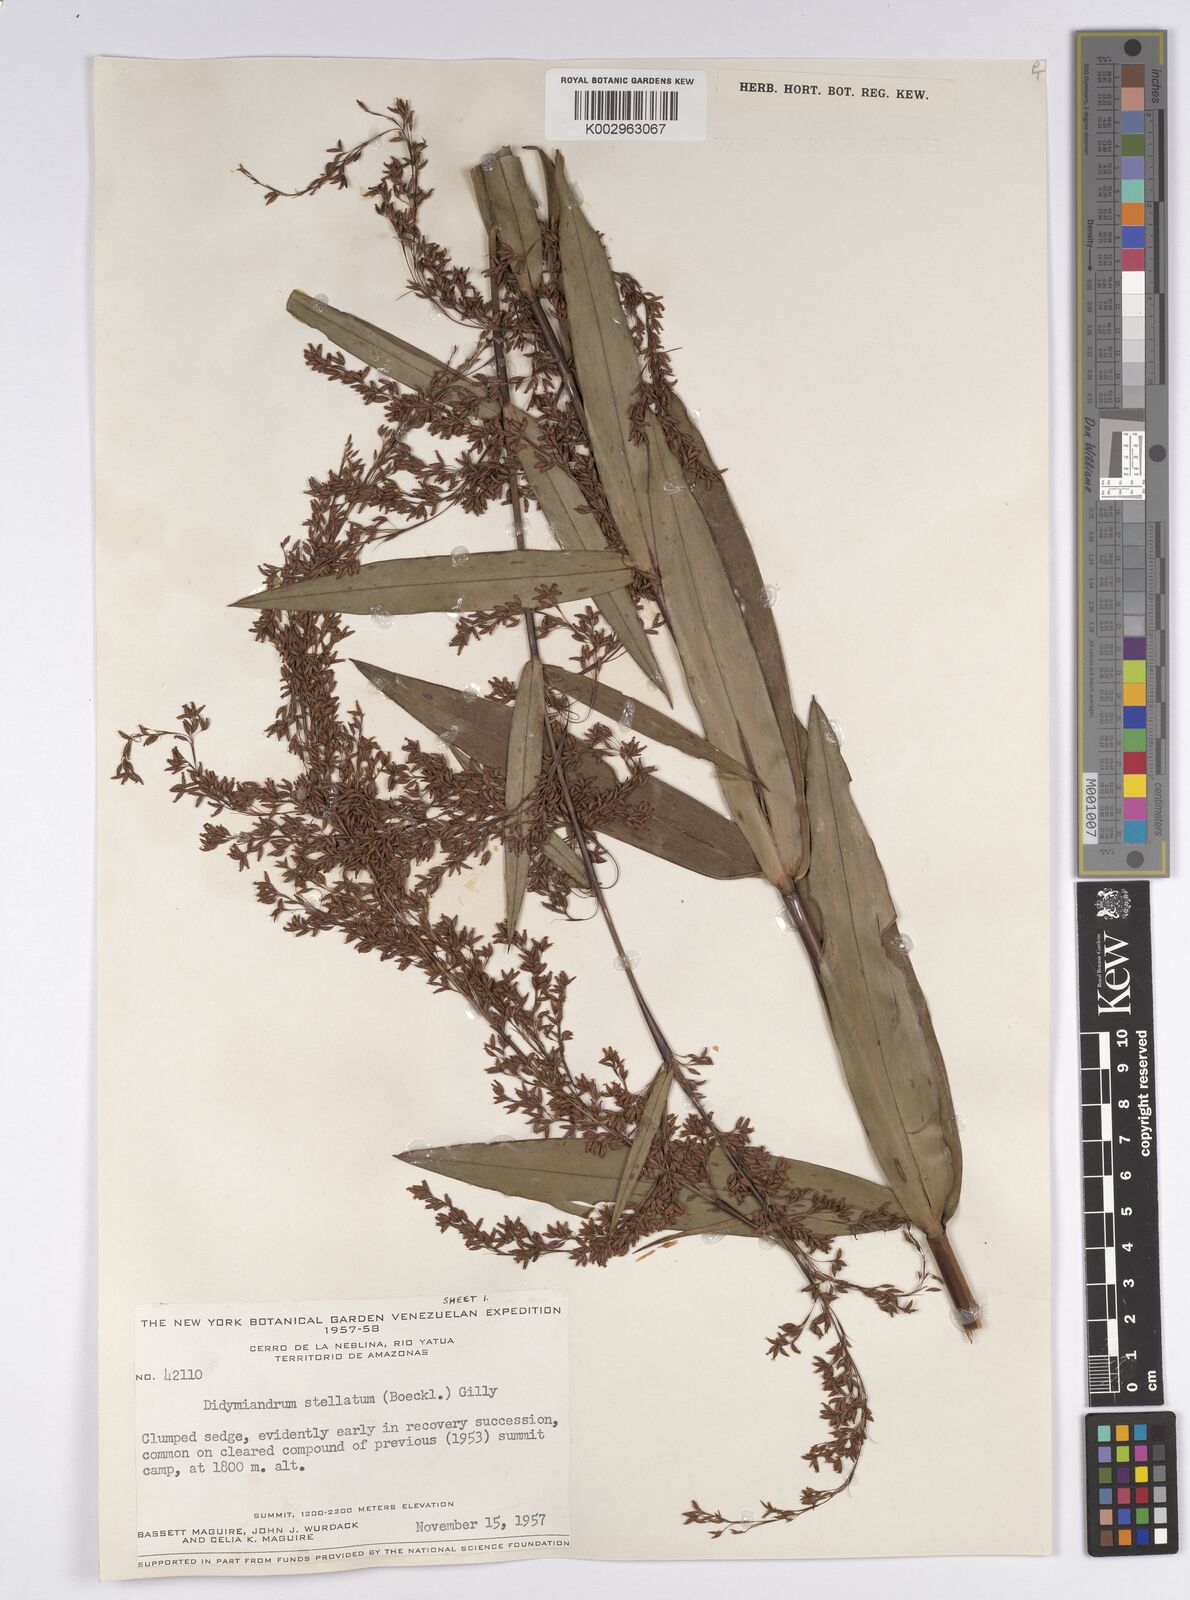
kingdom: Plantae
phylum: Tracheophyta
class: Liliopsida
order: Poales
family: Cyperaceae
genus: Didymiandrum
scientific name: Didymiandrum stellatum
